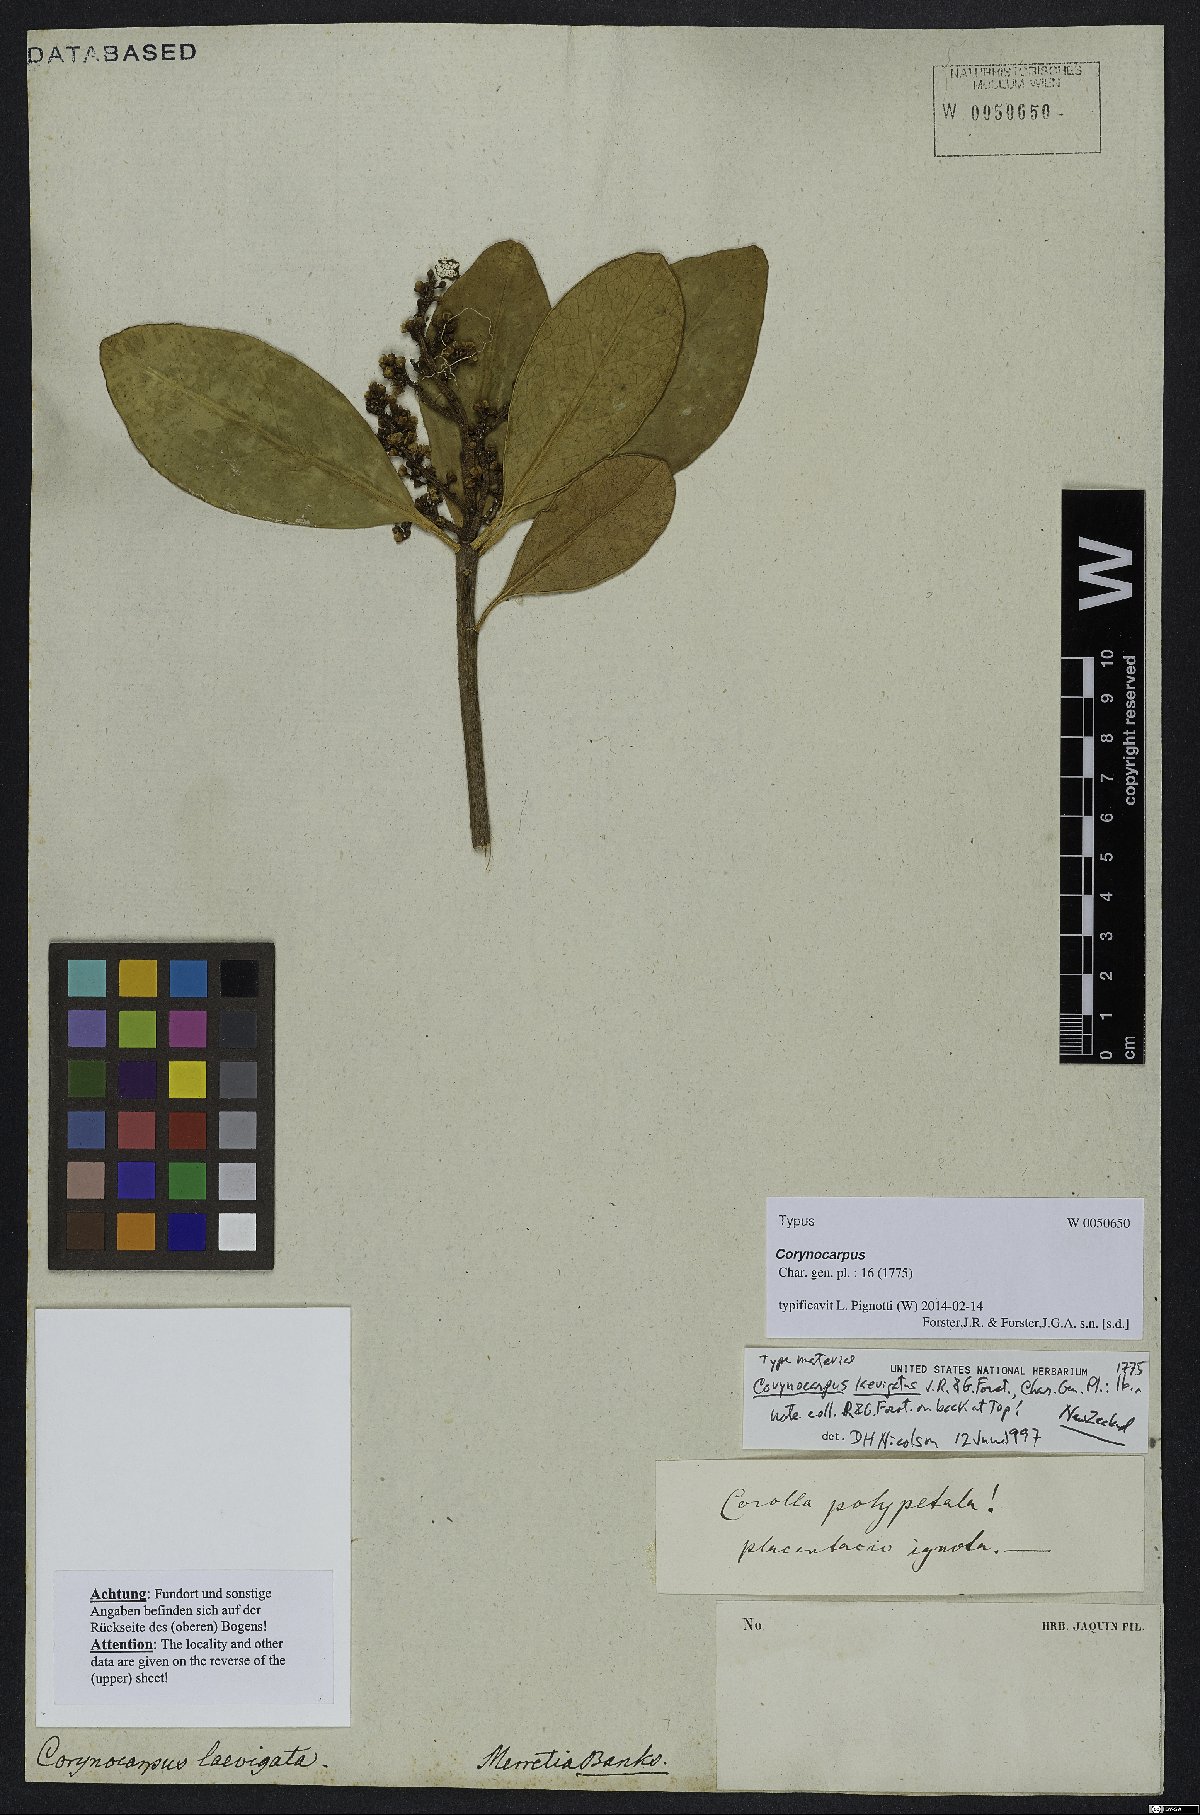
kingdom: Plantae
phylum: Tracheophyta
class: Magnoliopsida
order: Cucurbitales
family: Corynocarpaceae
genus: Corynocarpus
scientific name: Corynocarpus laevigatus
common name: New zealand laurel
